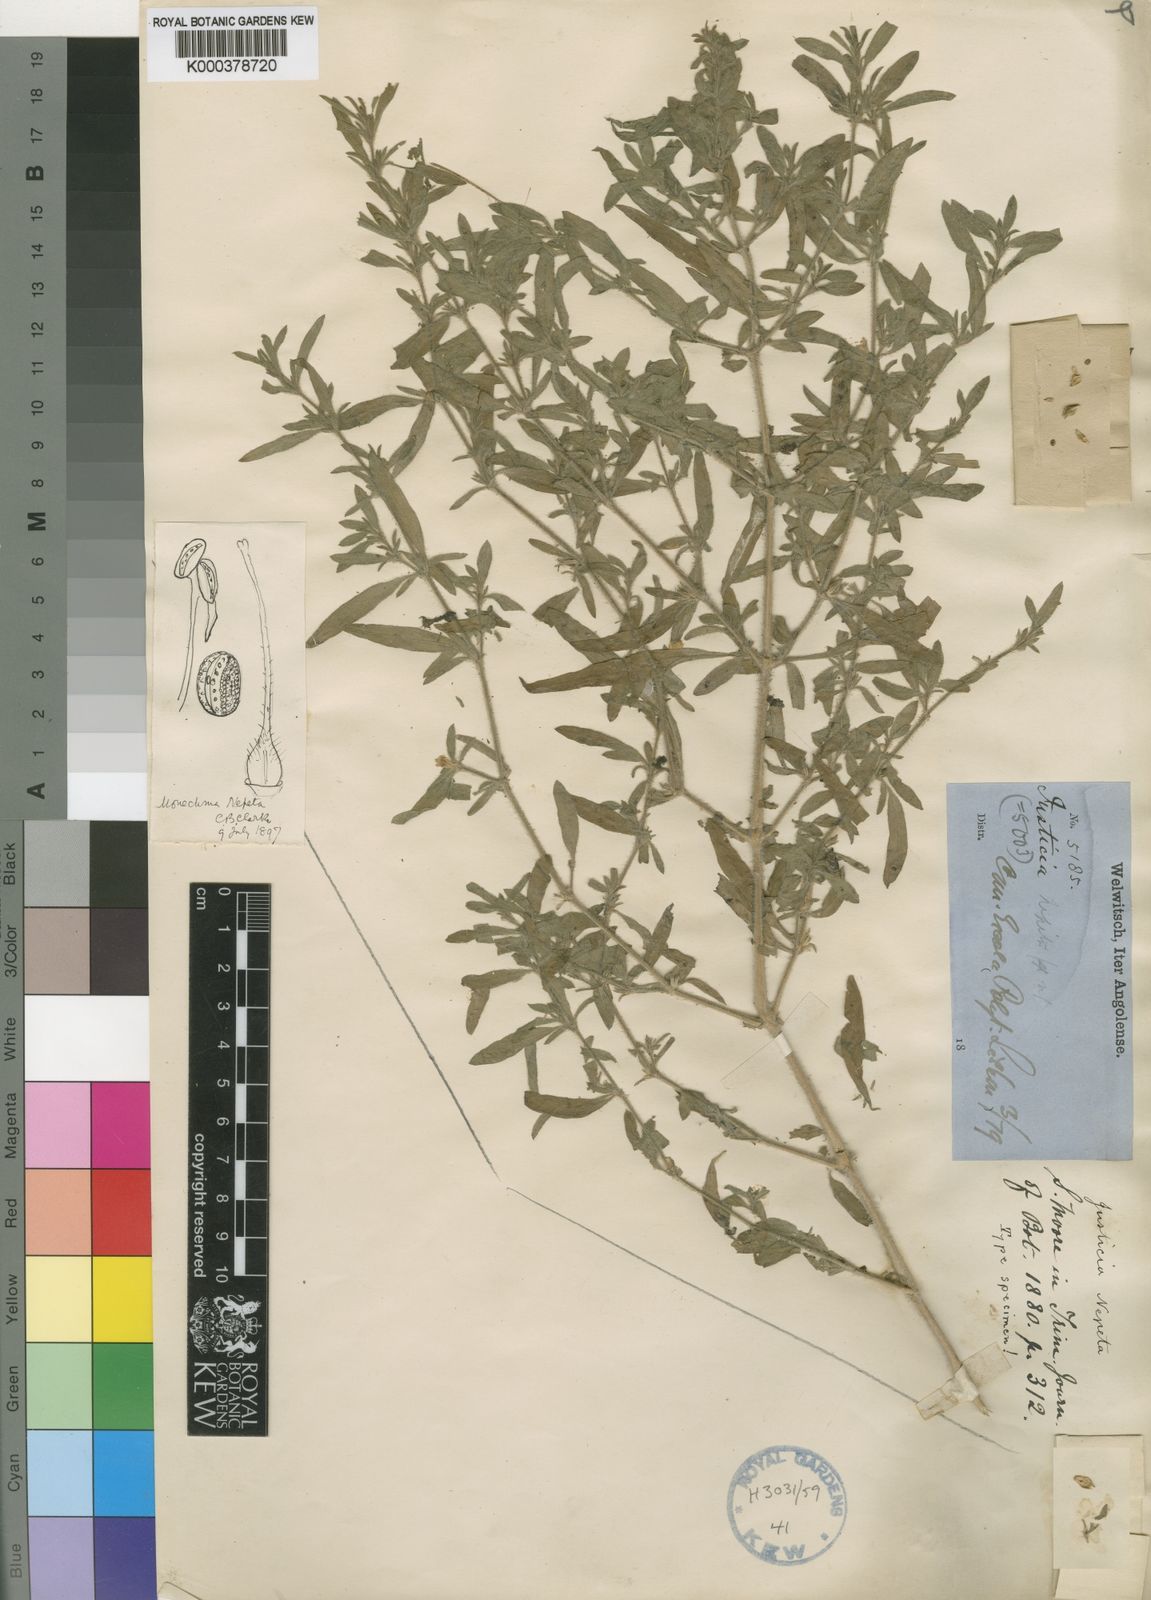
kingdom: Plantae
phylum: Tracheophyta
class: Magnoliopsida
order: Lamiales
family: Acanthaceae
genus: Monechma
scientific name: Monechma divaricatum
